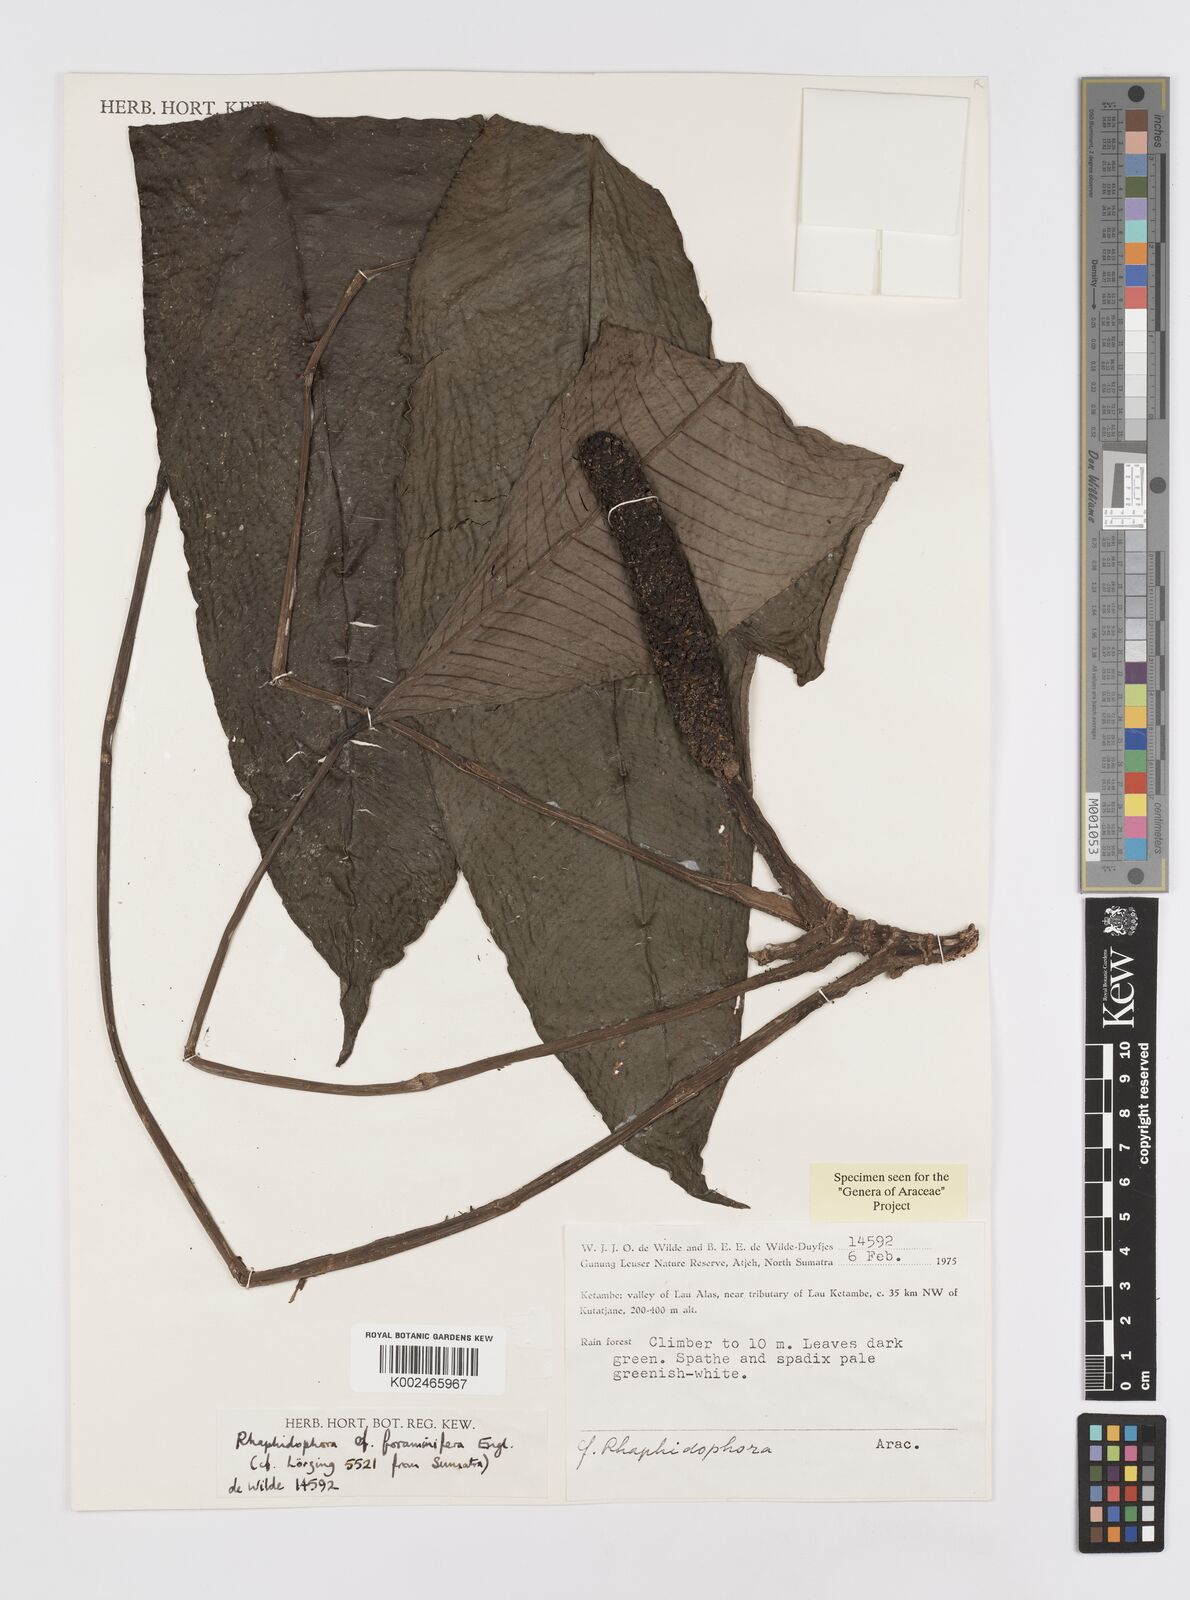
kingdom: Plantae
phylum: Tracheophyta
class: Liliopsida
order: Alismatales
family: Araceae
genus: Rhaphidophora
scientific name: Rhaphidophora puberula
